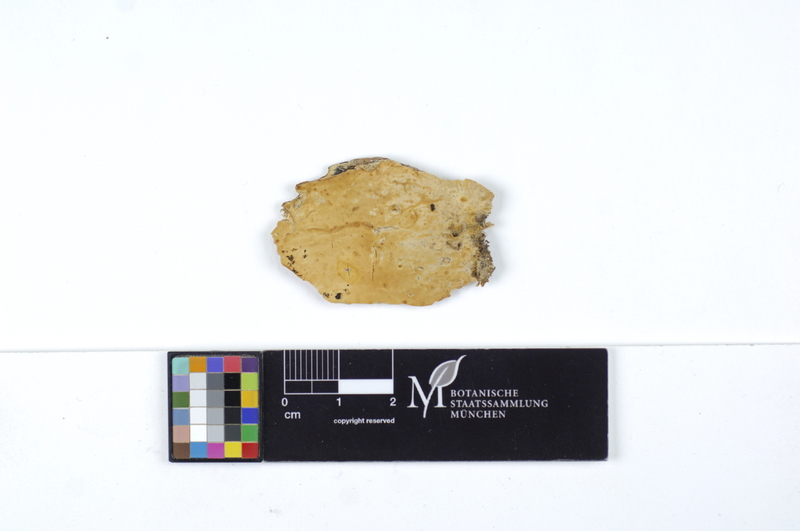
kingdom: Plantae
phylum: Tracheophyta
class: Magnoliopsida
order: Malpighiales
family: Salicaceae
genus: Populus
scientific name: Populus tremula
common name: European aspen
